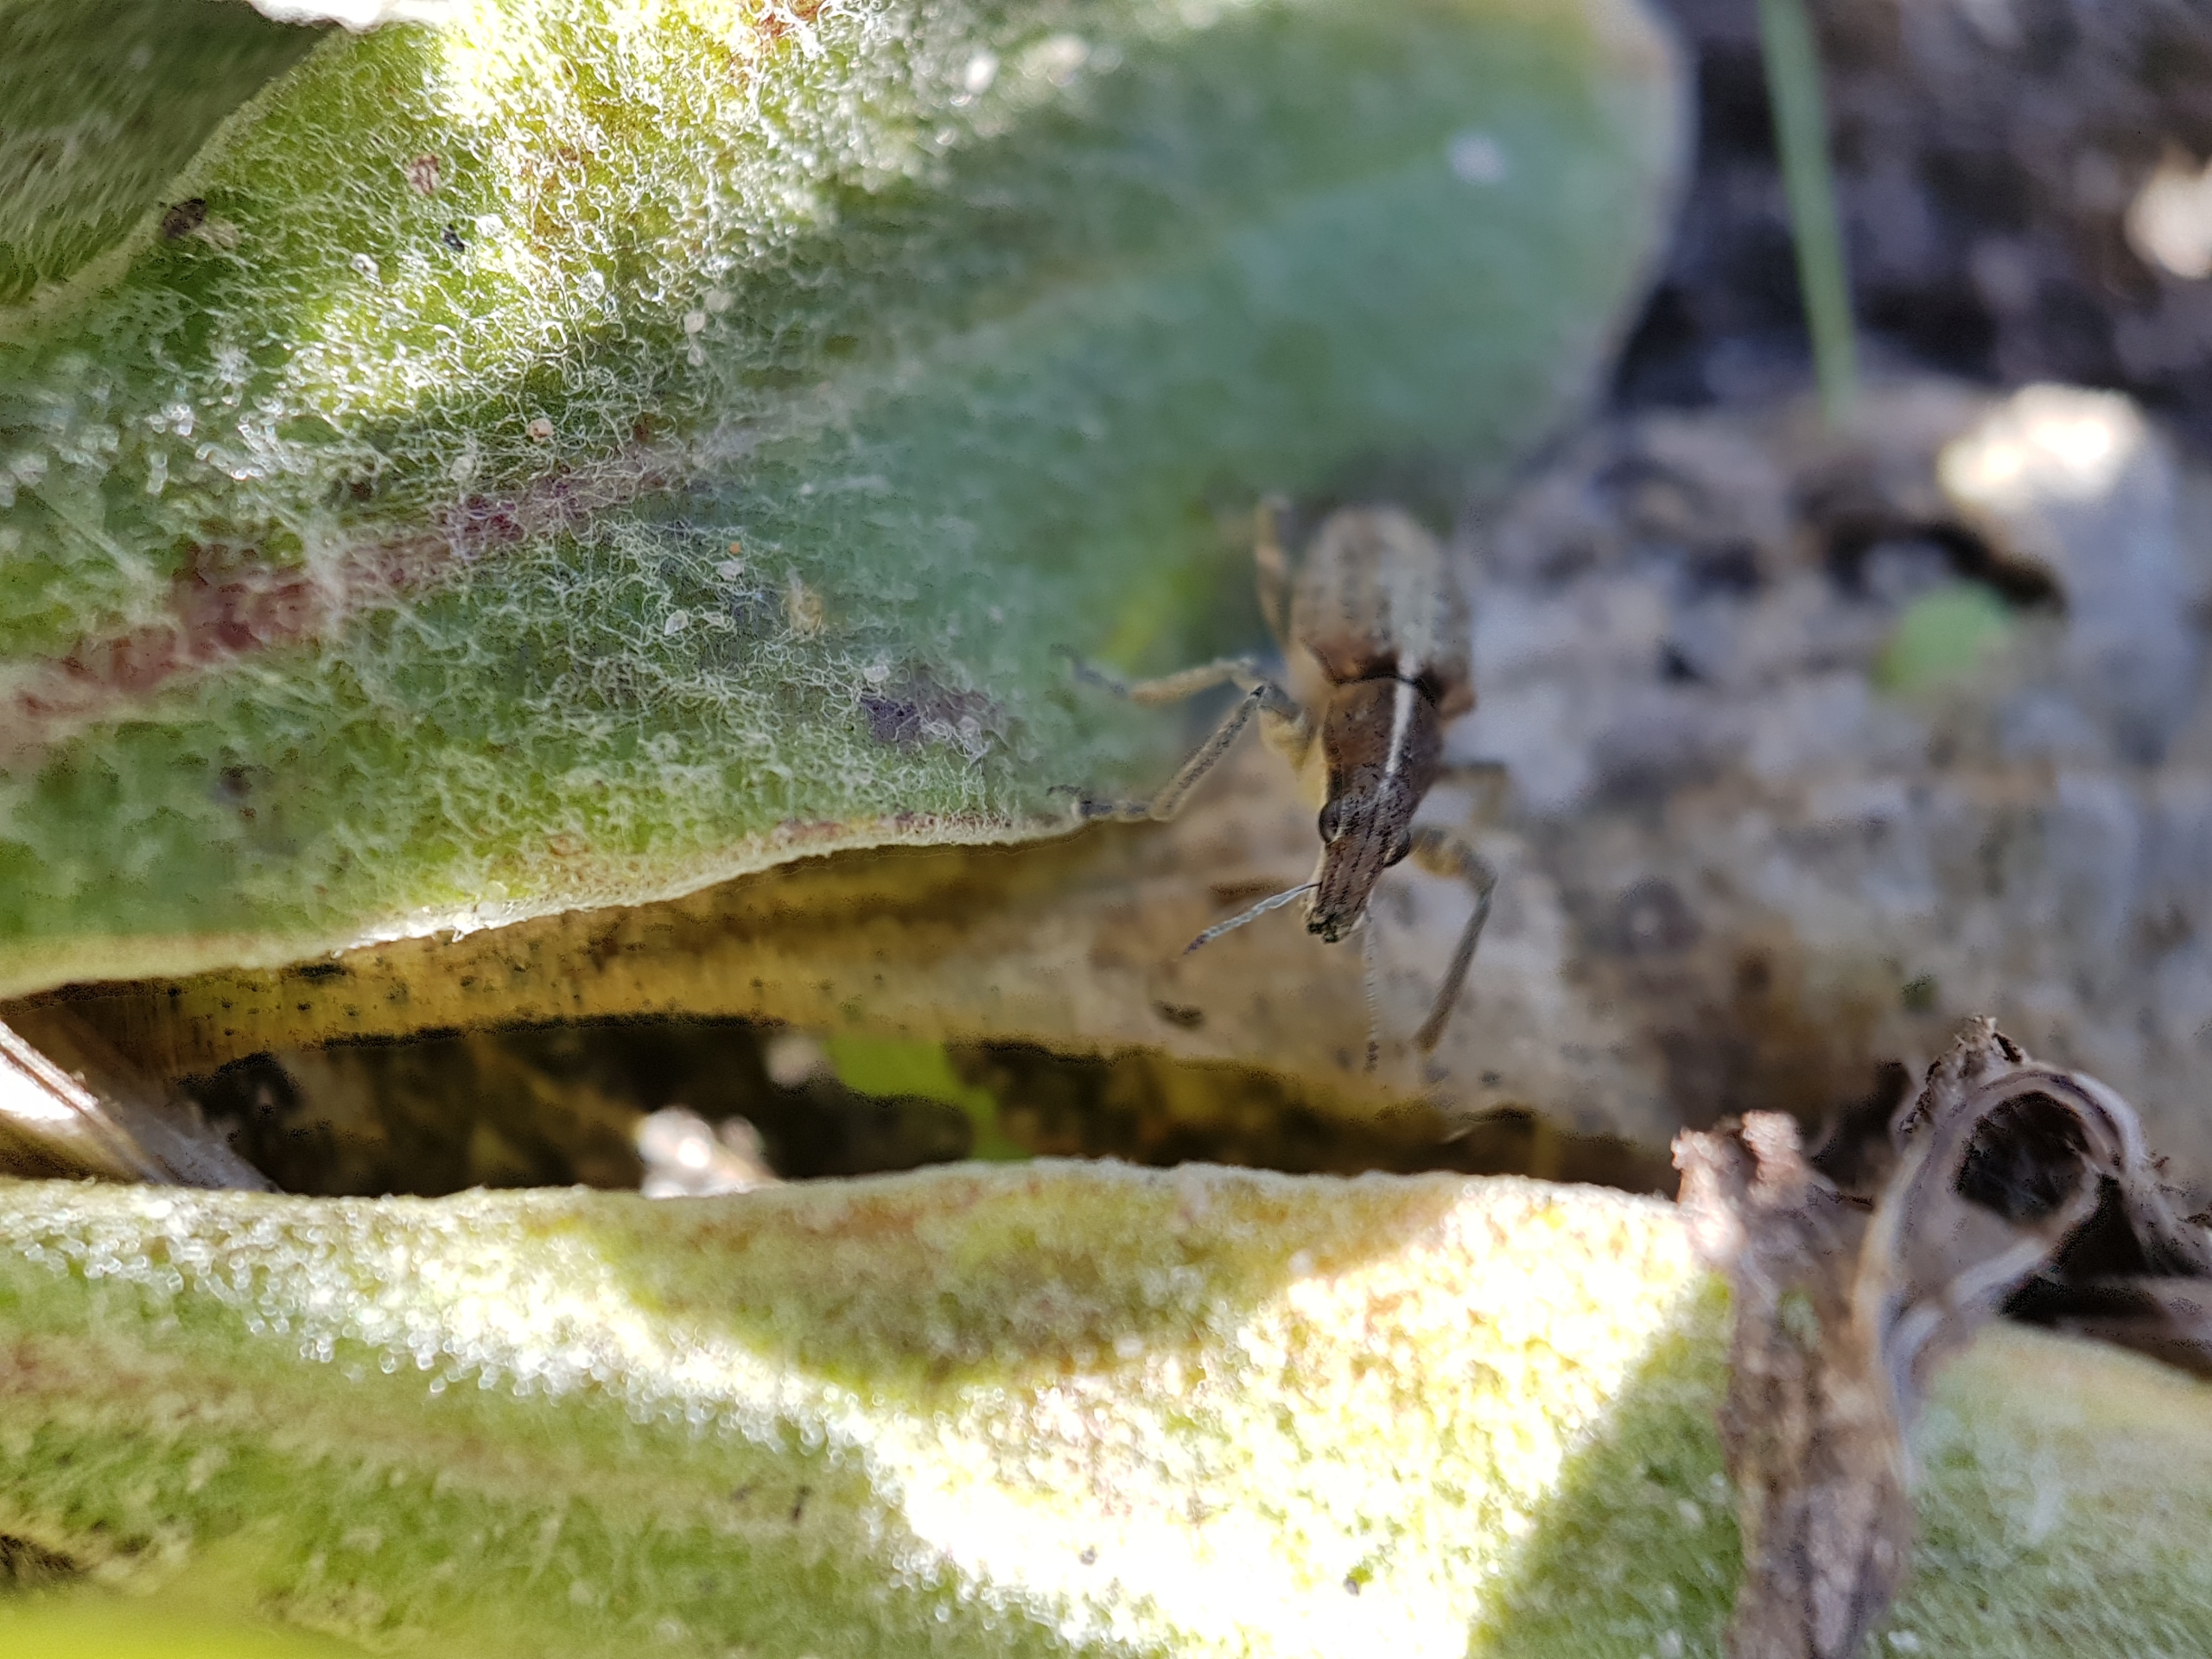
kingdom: Animalia
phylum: Arthropoda
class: Insecta
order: Coleoptera
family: Curculionidae
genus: Charagmus
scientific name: Charagmus gressorius
